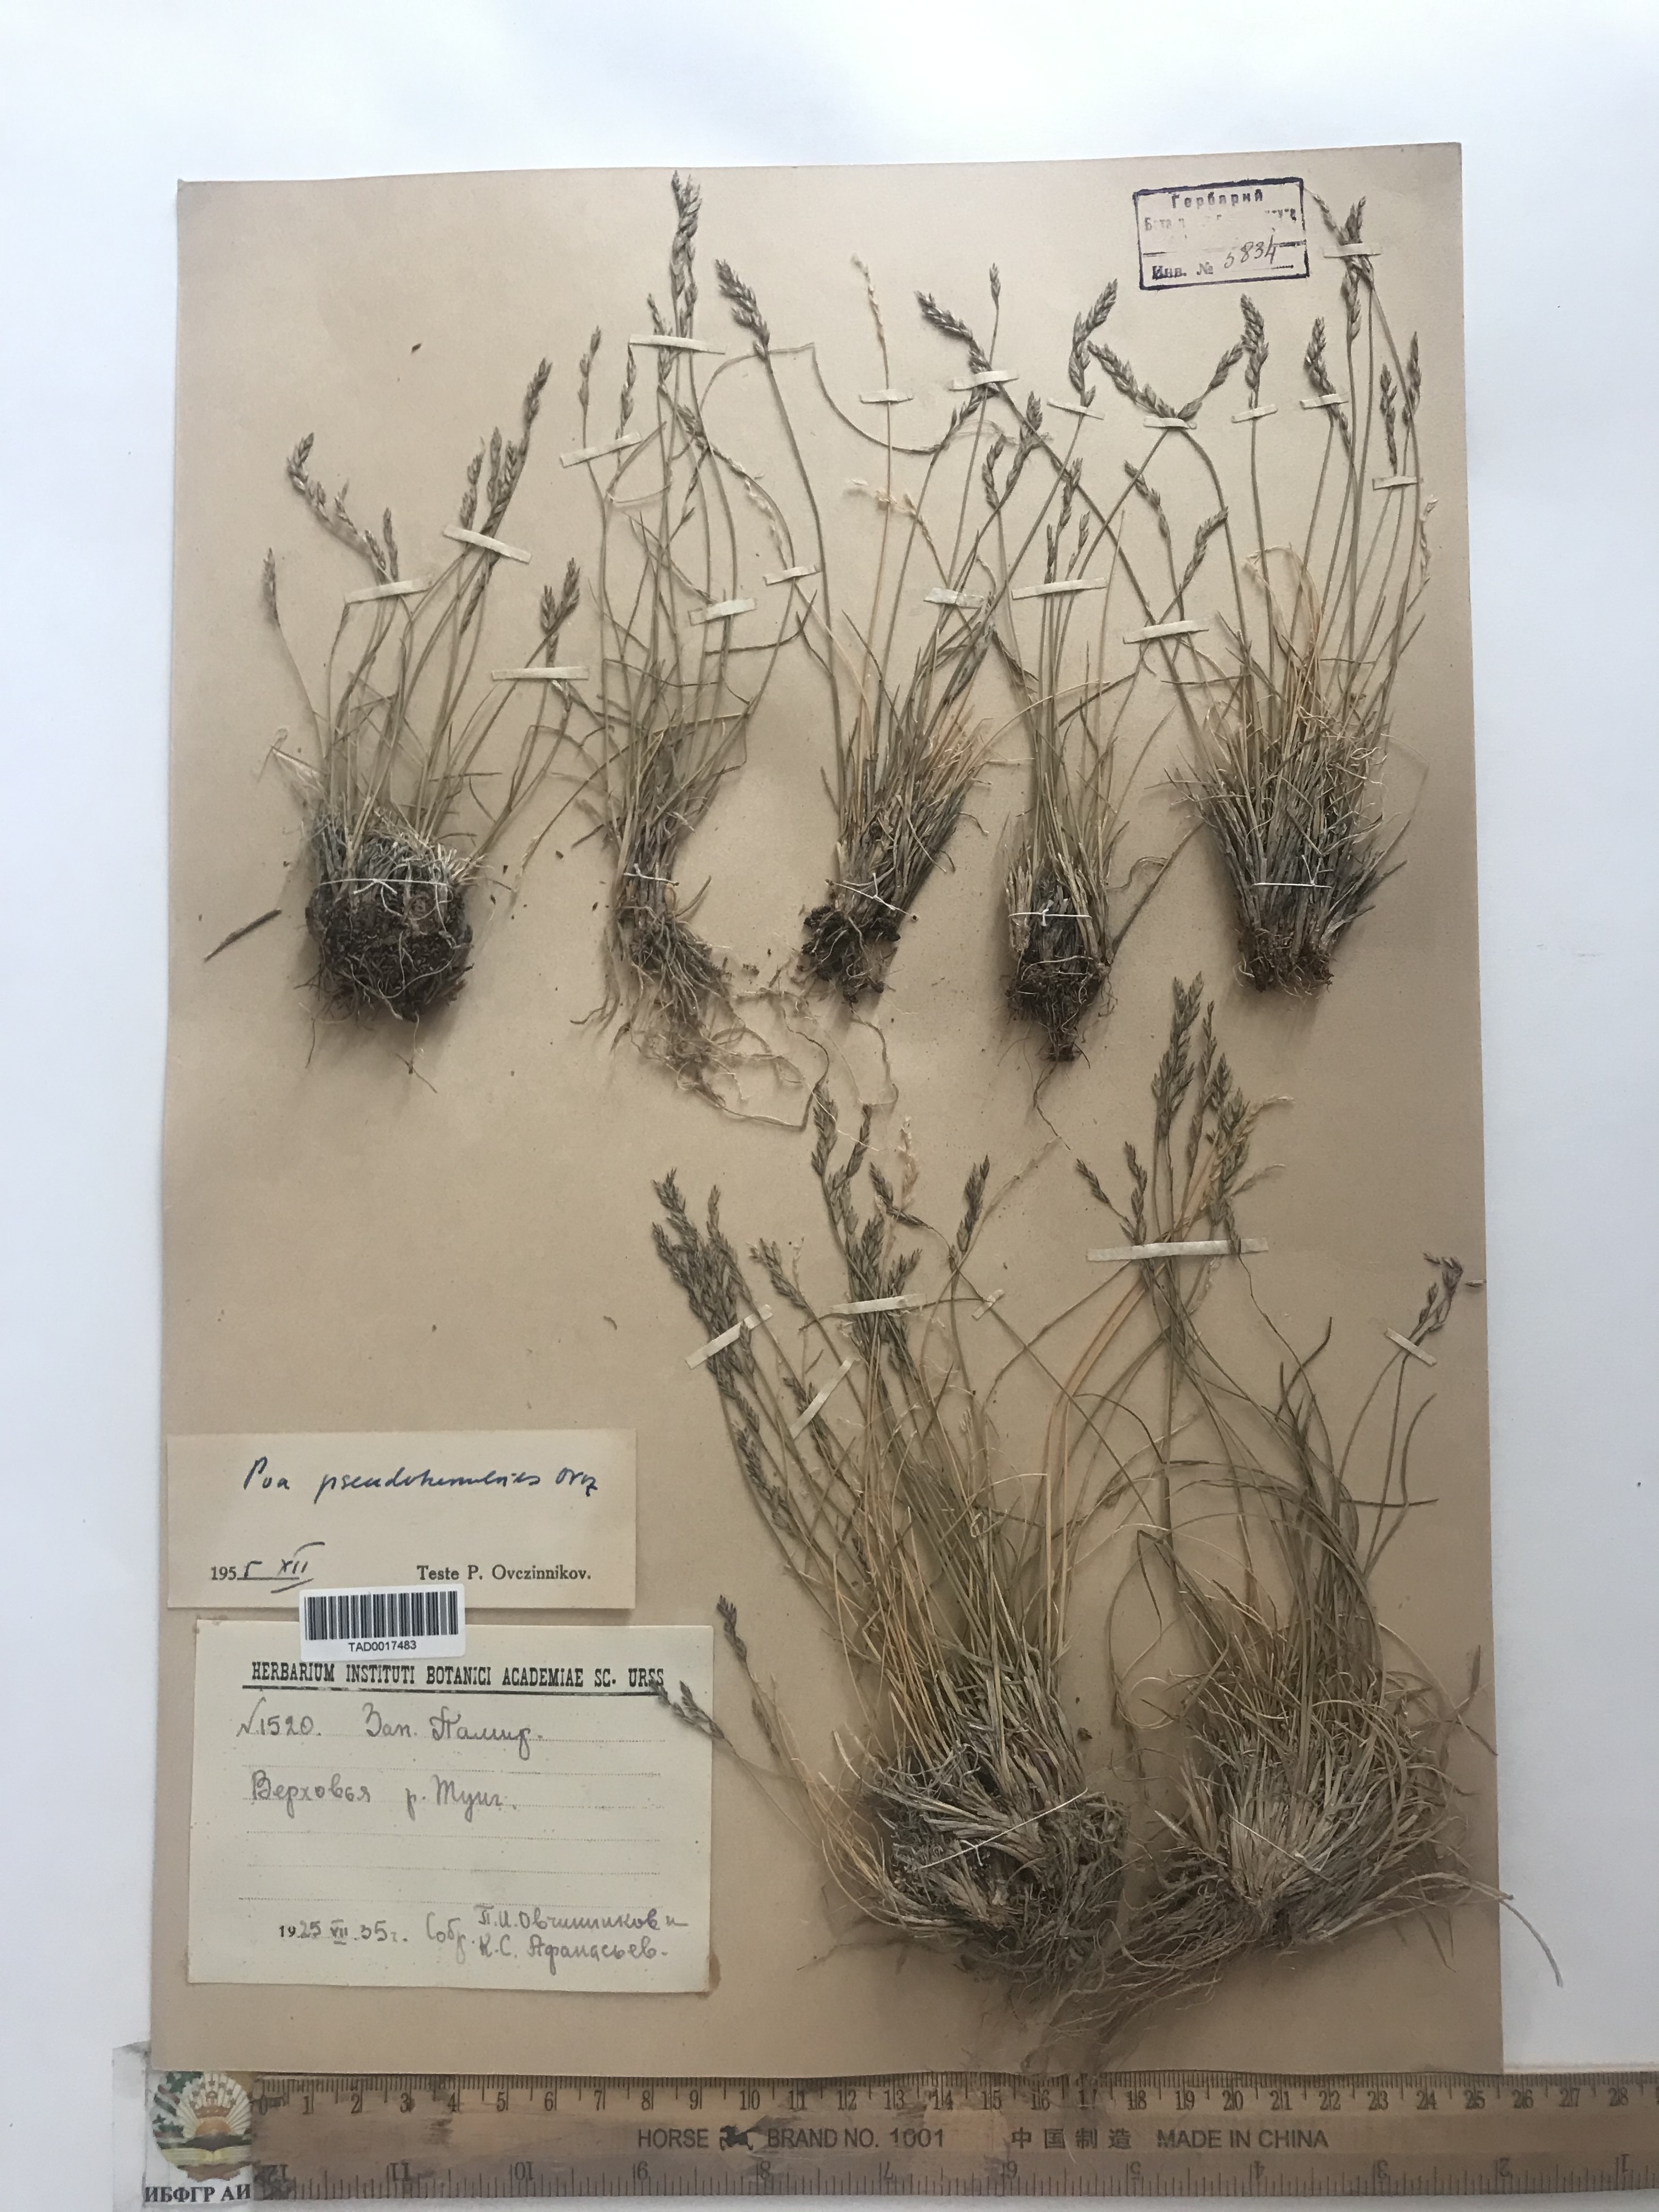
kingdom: Plantae
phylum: Tracheophyta
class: Liliopsida
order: Poales
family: Poaceae
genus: Poa
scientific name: Poa glauca
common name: Glaucous bluegrass
